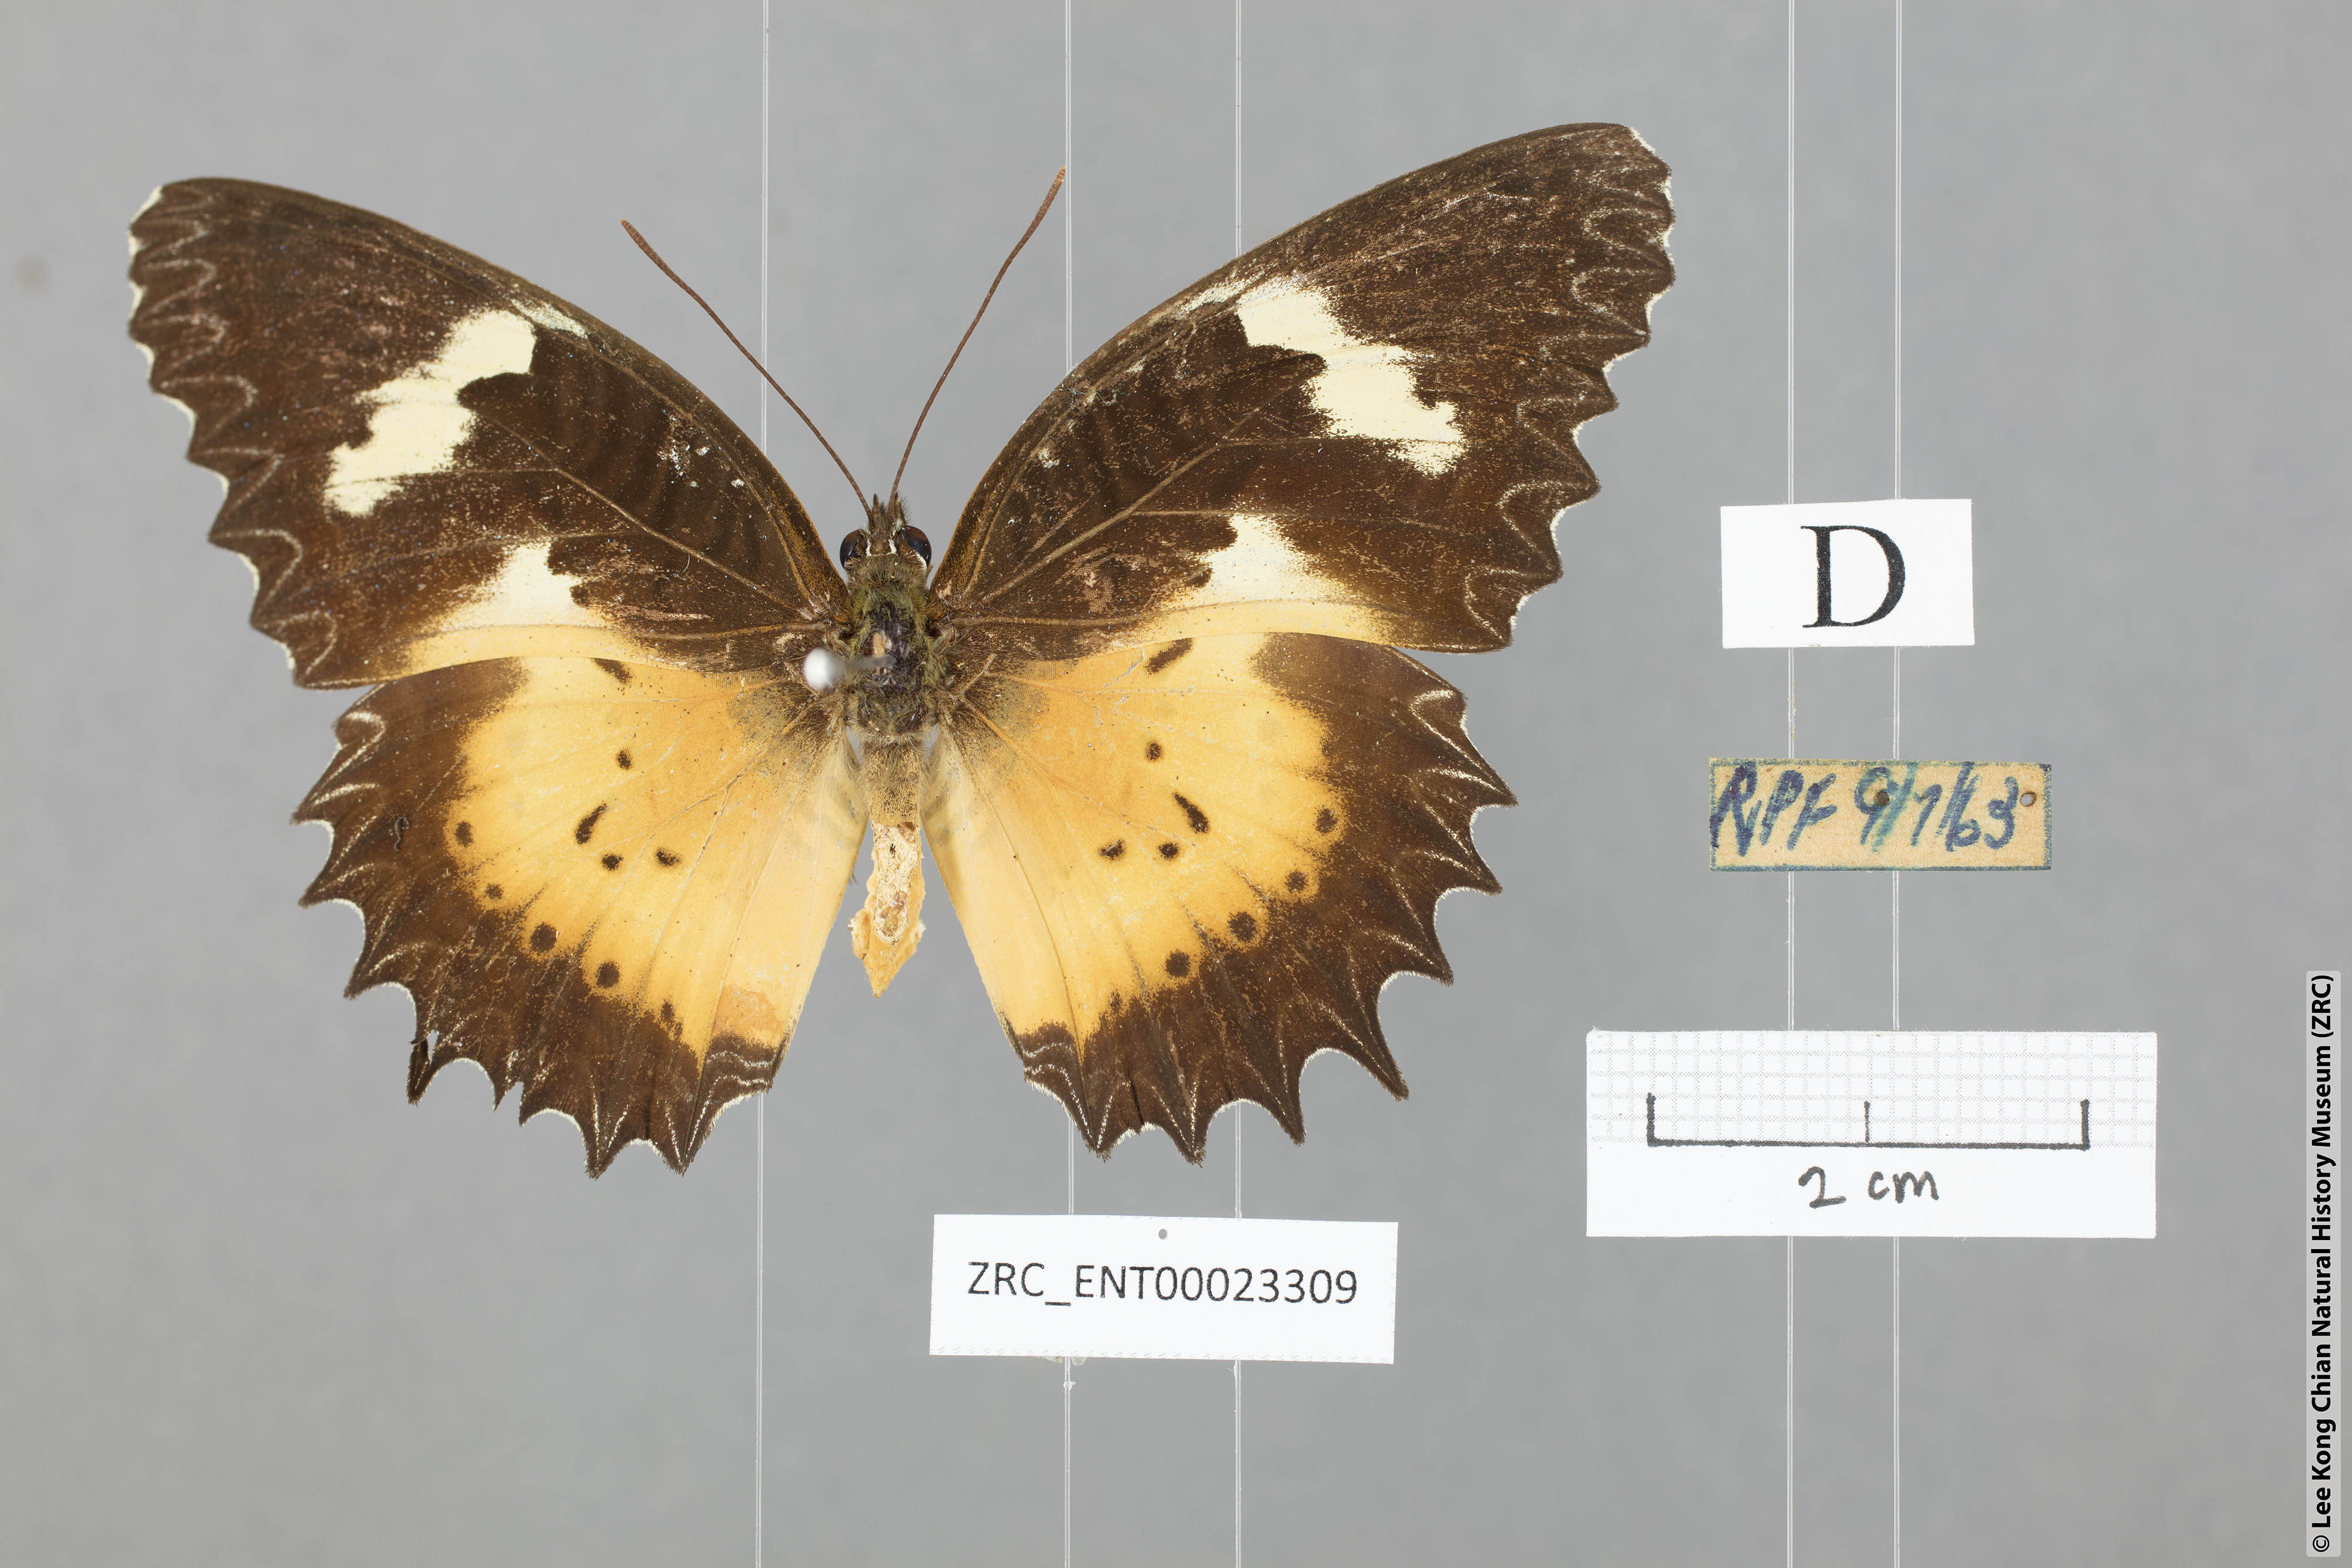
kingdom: Animalia
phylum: Arthropoda
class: Insecta
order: Lepidoptera
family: Nymphalidae
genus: Cethosia
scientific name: Cethosia hypsea
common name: Malayan lacewing butterfly
